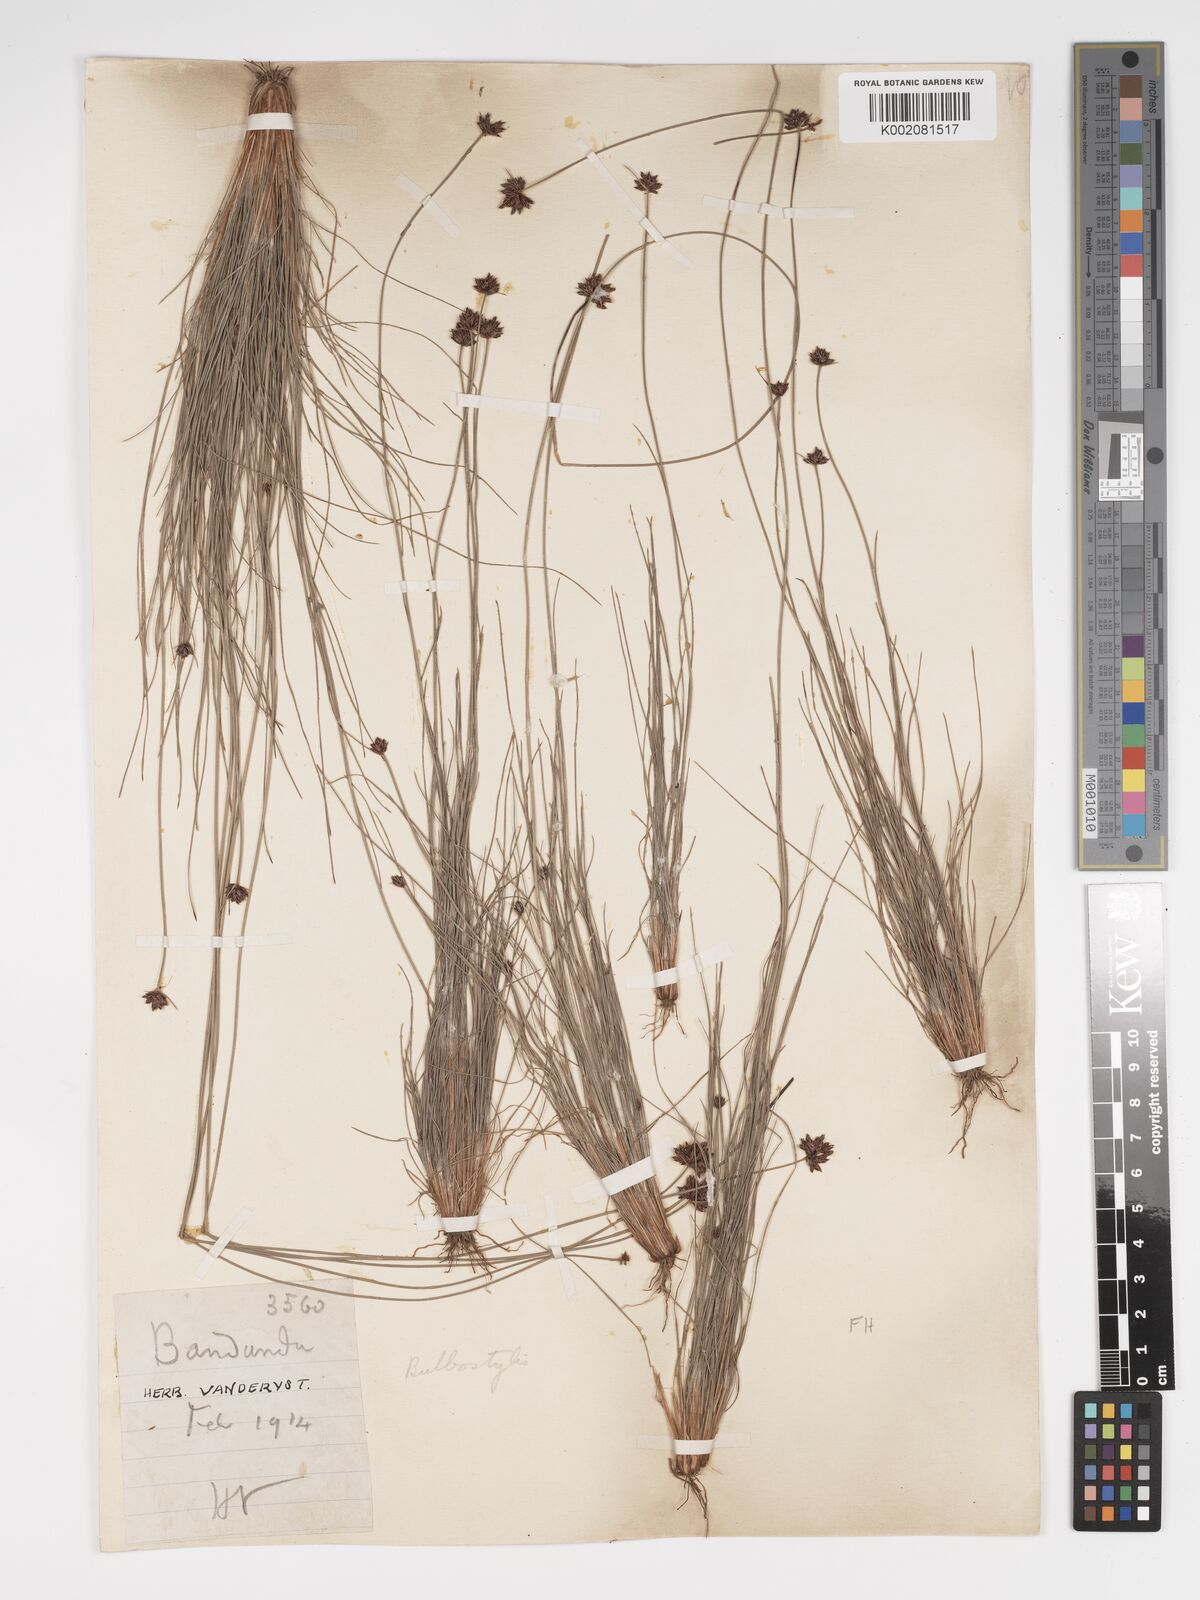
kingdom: Plantae
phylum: Tracheophyta
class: Liliopsida
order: Poales
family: Cyperaceae
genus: Bulbostylis
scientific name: Bulbostylis scabricaulis
